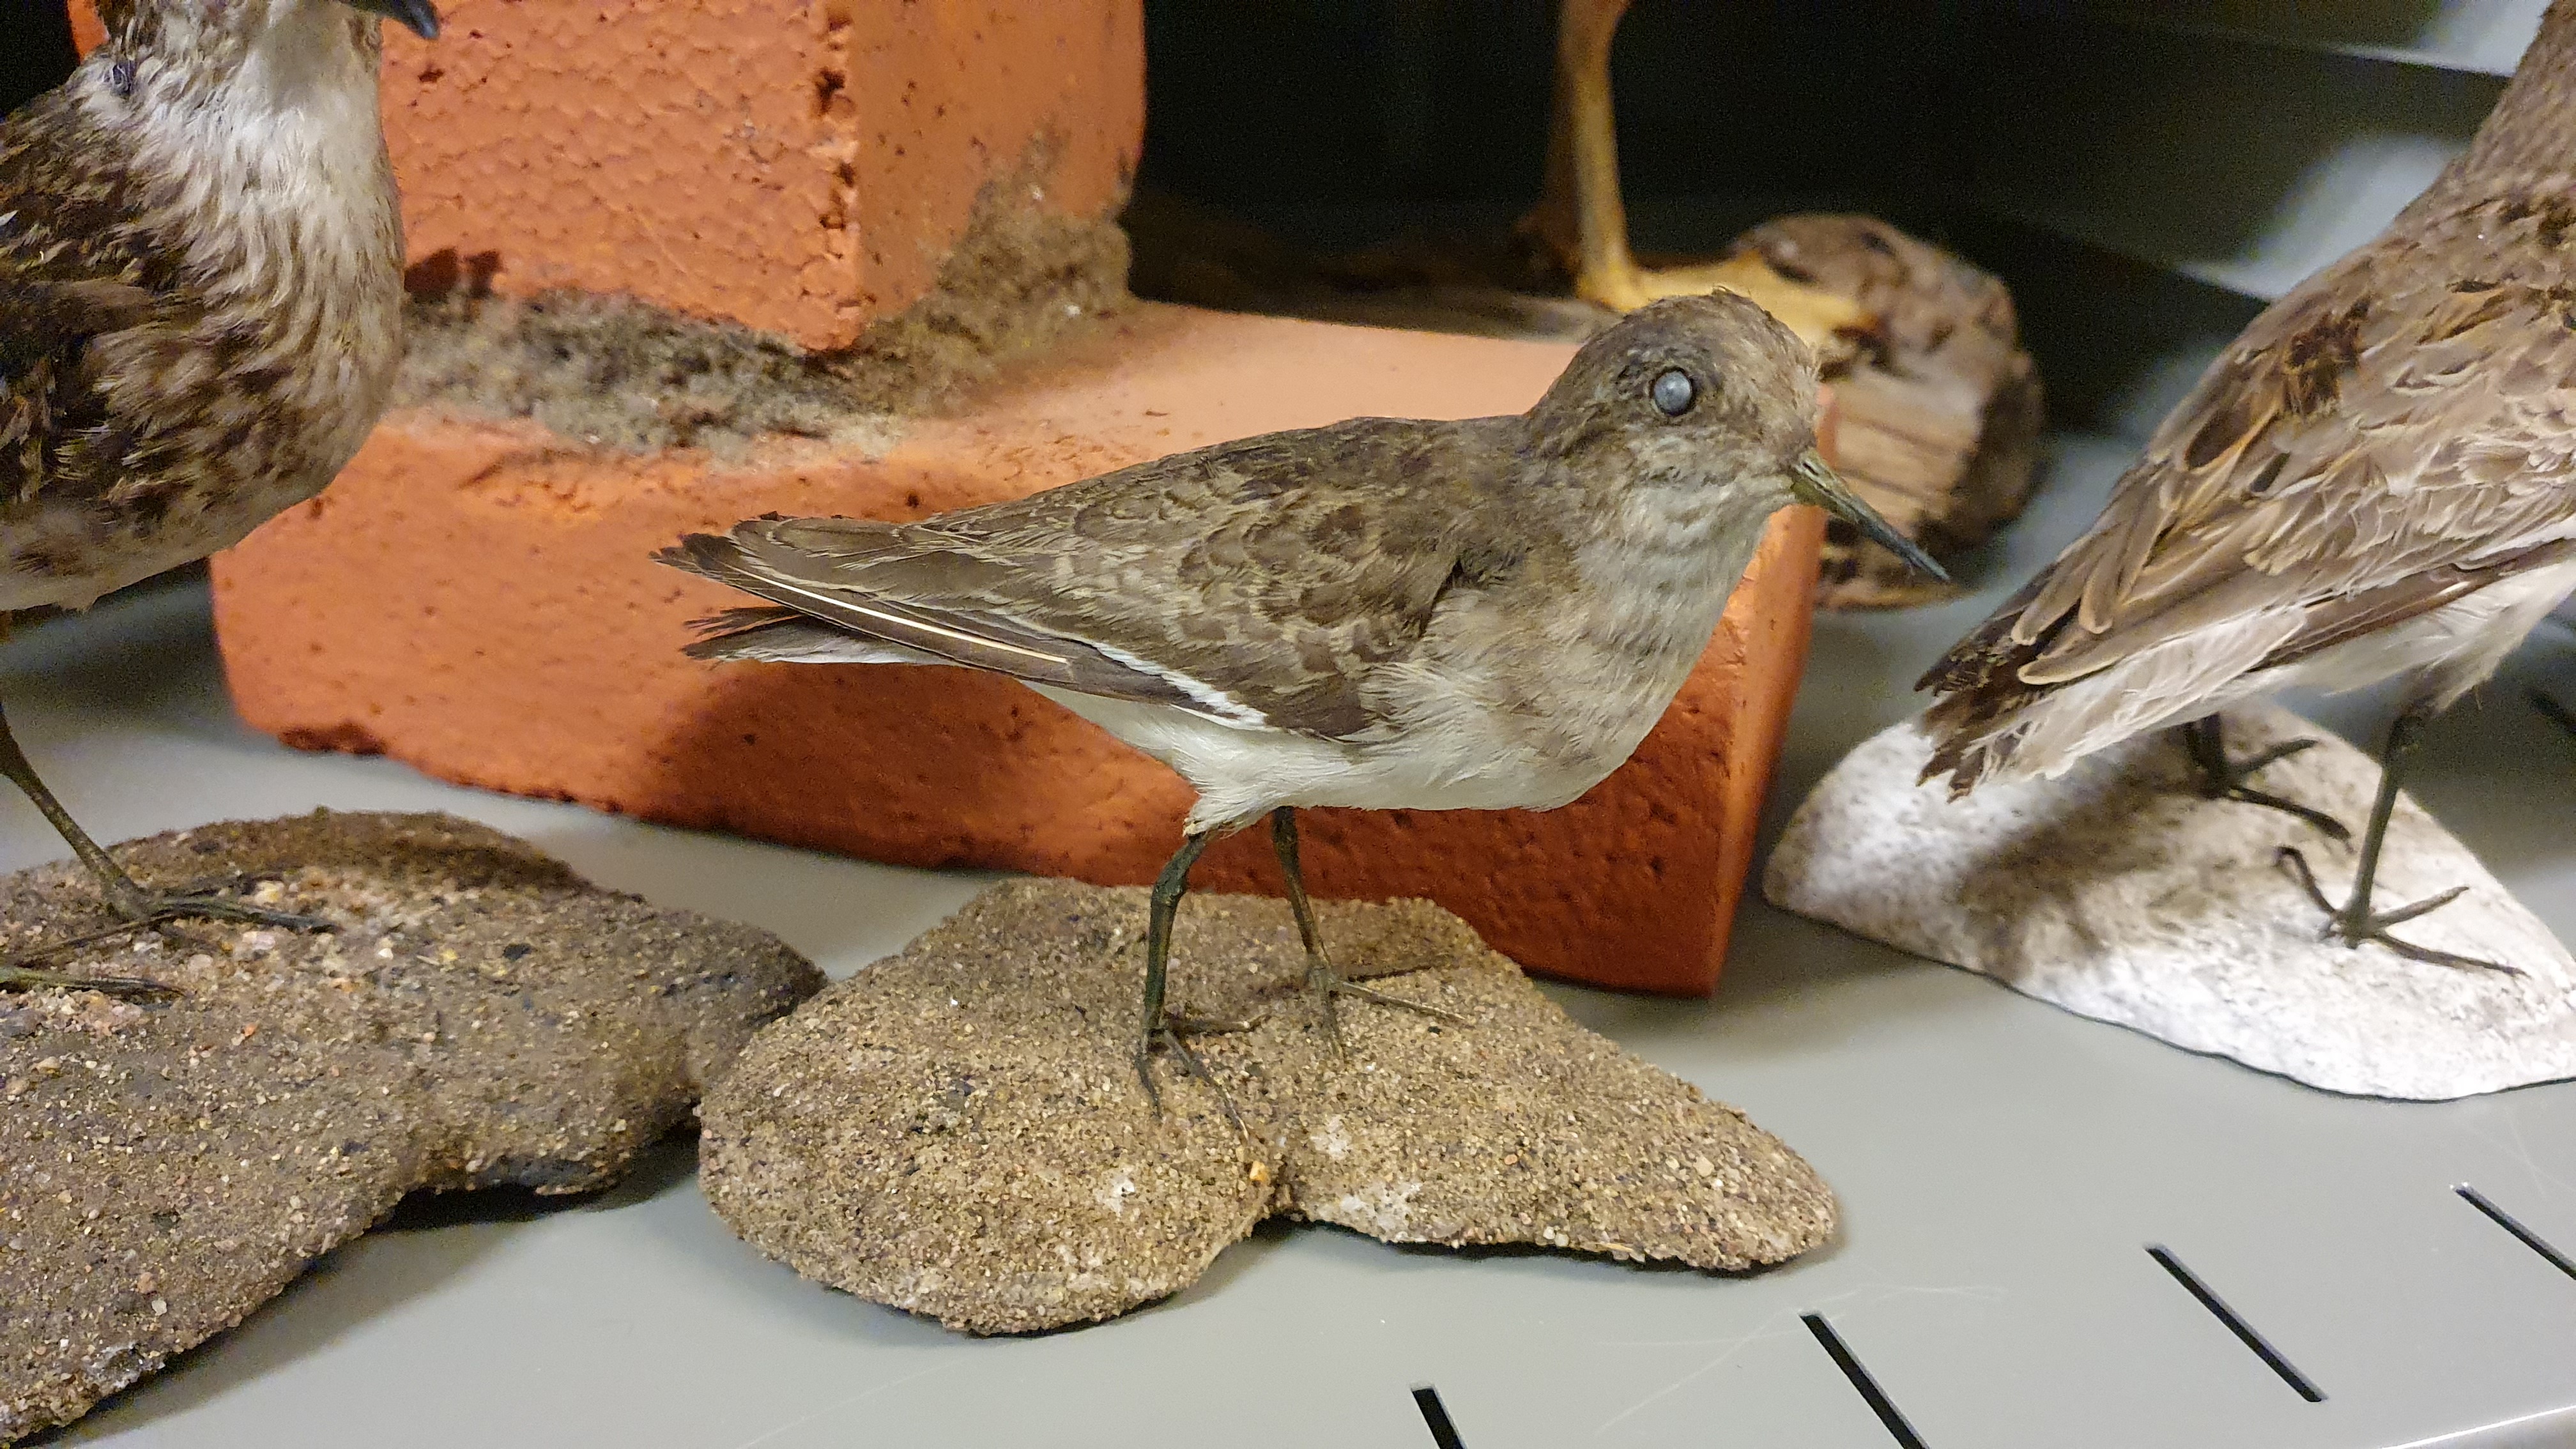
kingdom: Animalia
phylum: Chordata
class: Aves
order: Charadriiformes
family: Scolopacidae
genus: Calidris
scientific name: Calidris temminckii
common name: Temminck's stint
